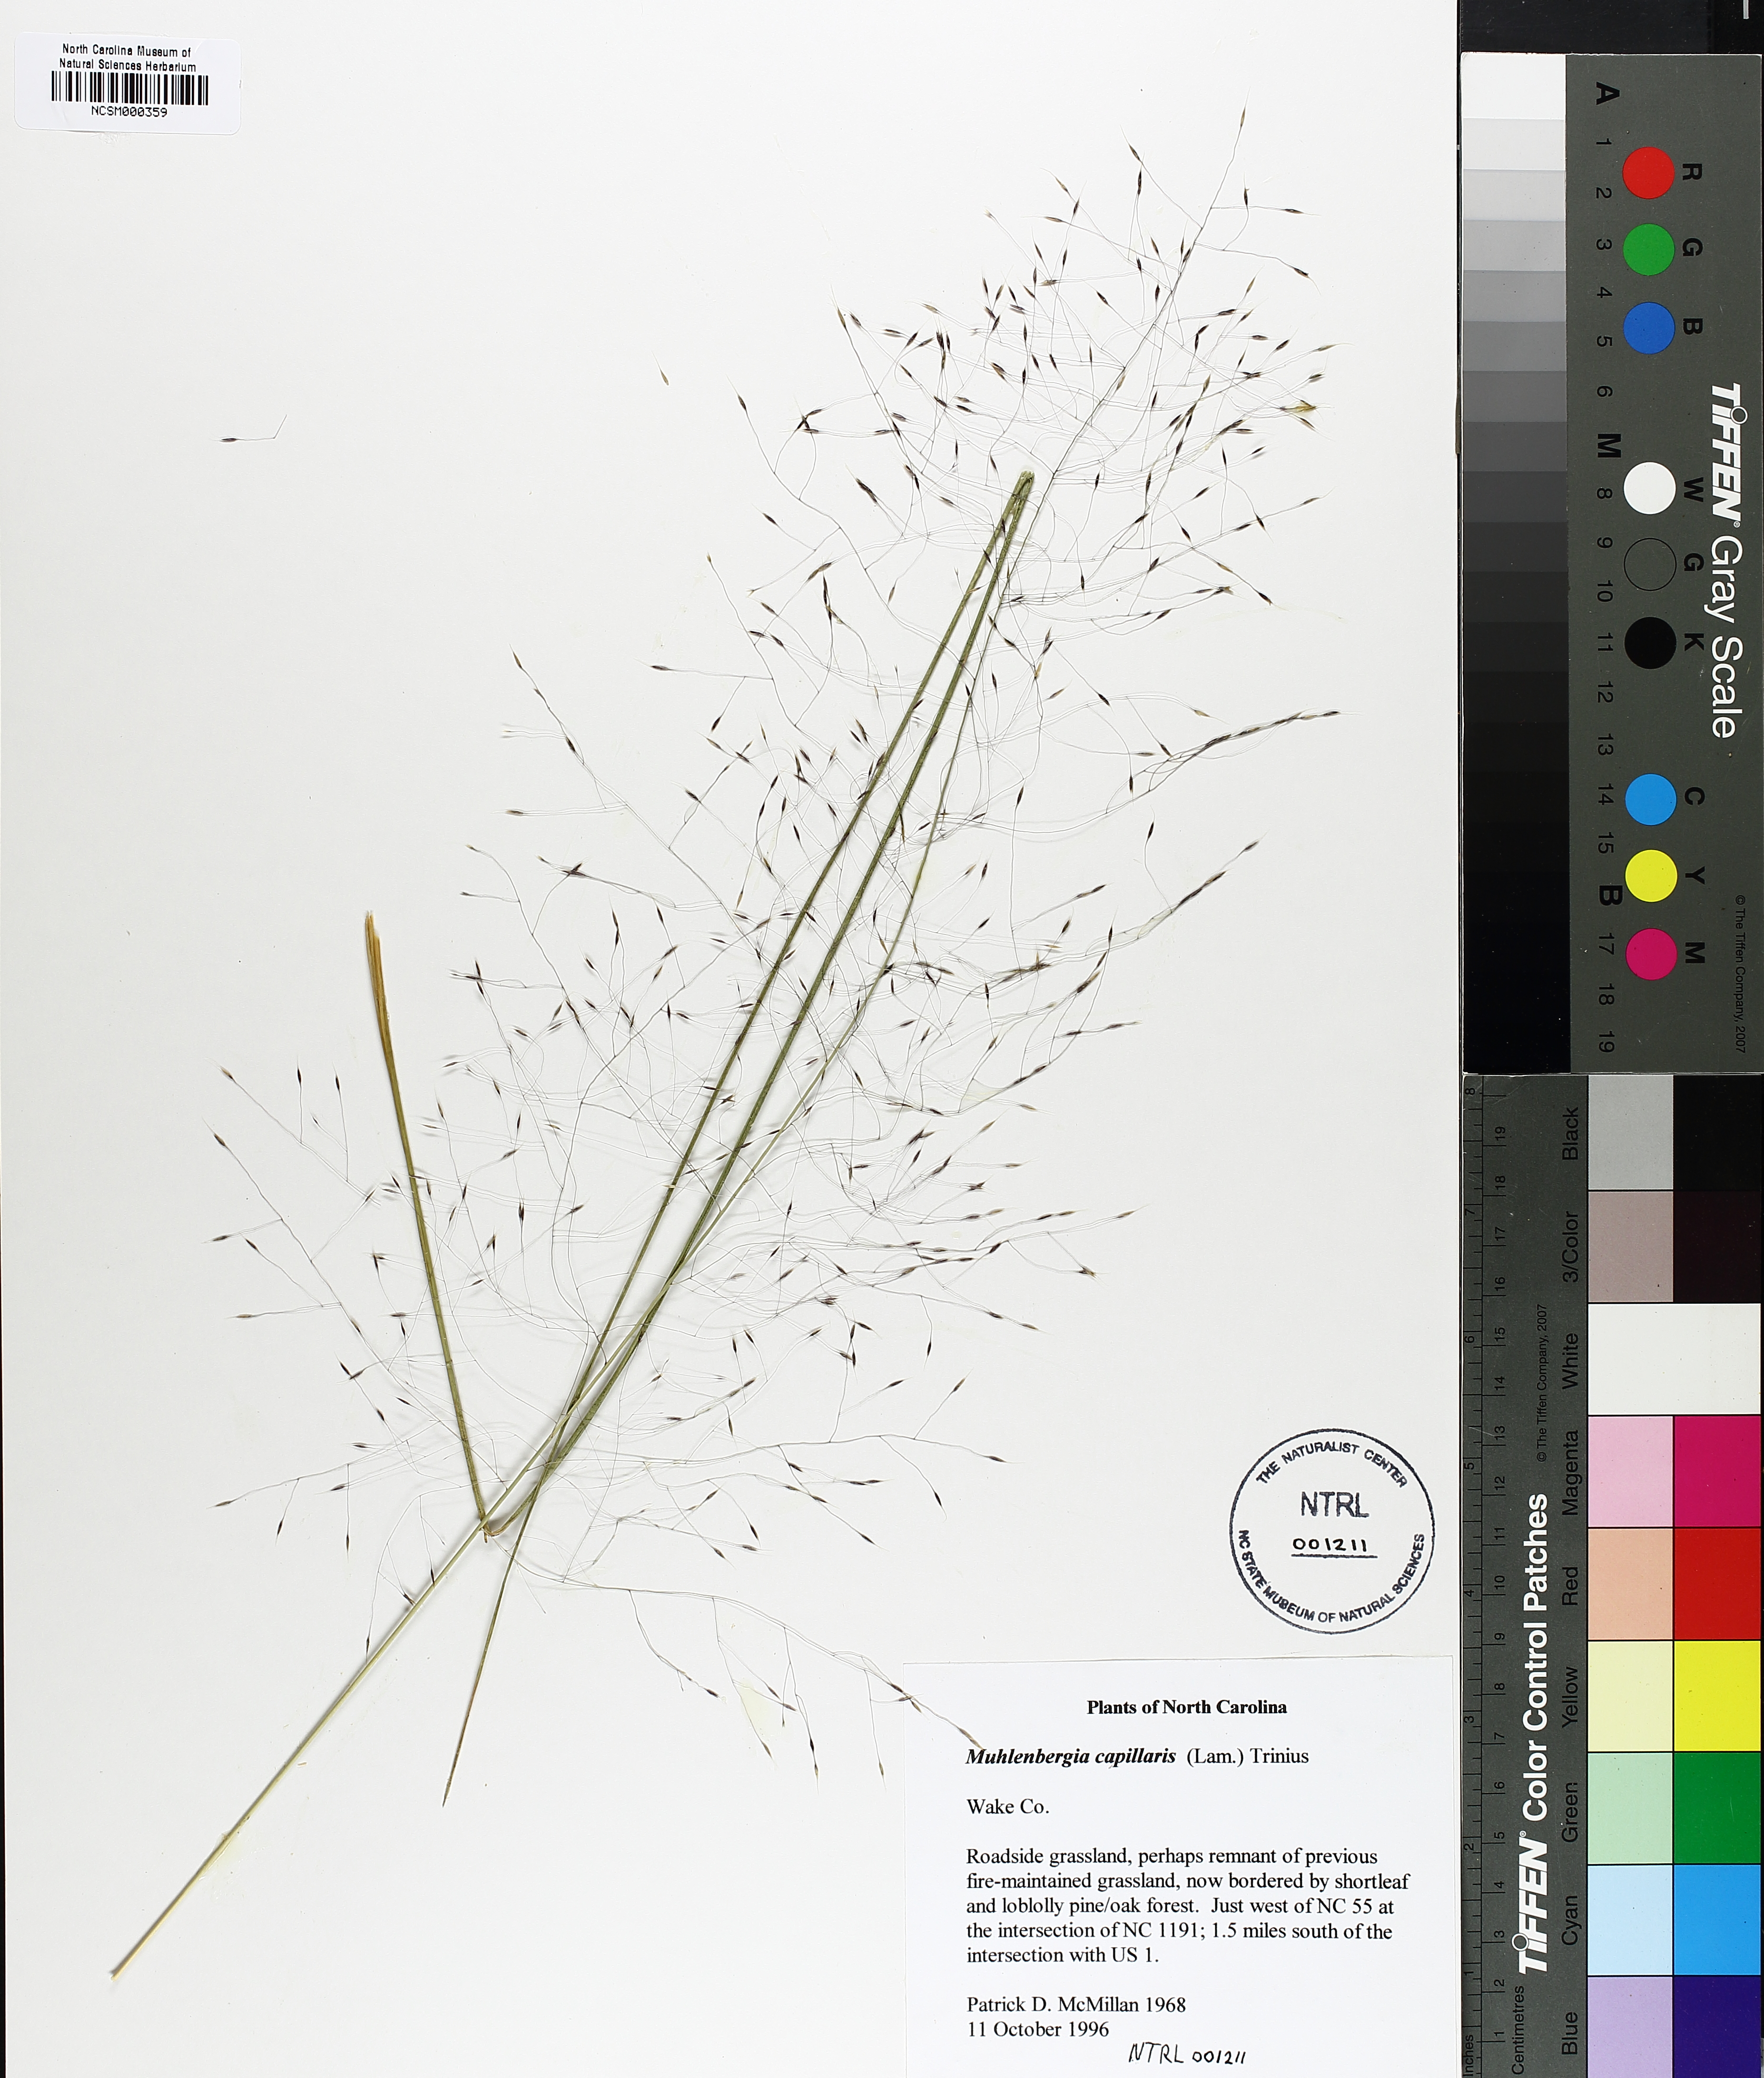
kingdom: Plantae
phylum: Tracheophyta
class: Liliopsida
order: Poales
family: Poaceae
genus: Muhlenbergia
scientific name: Muhlenbergia capillaris
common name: Purple grass
